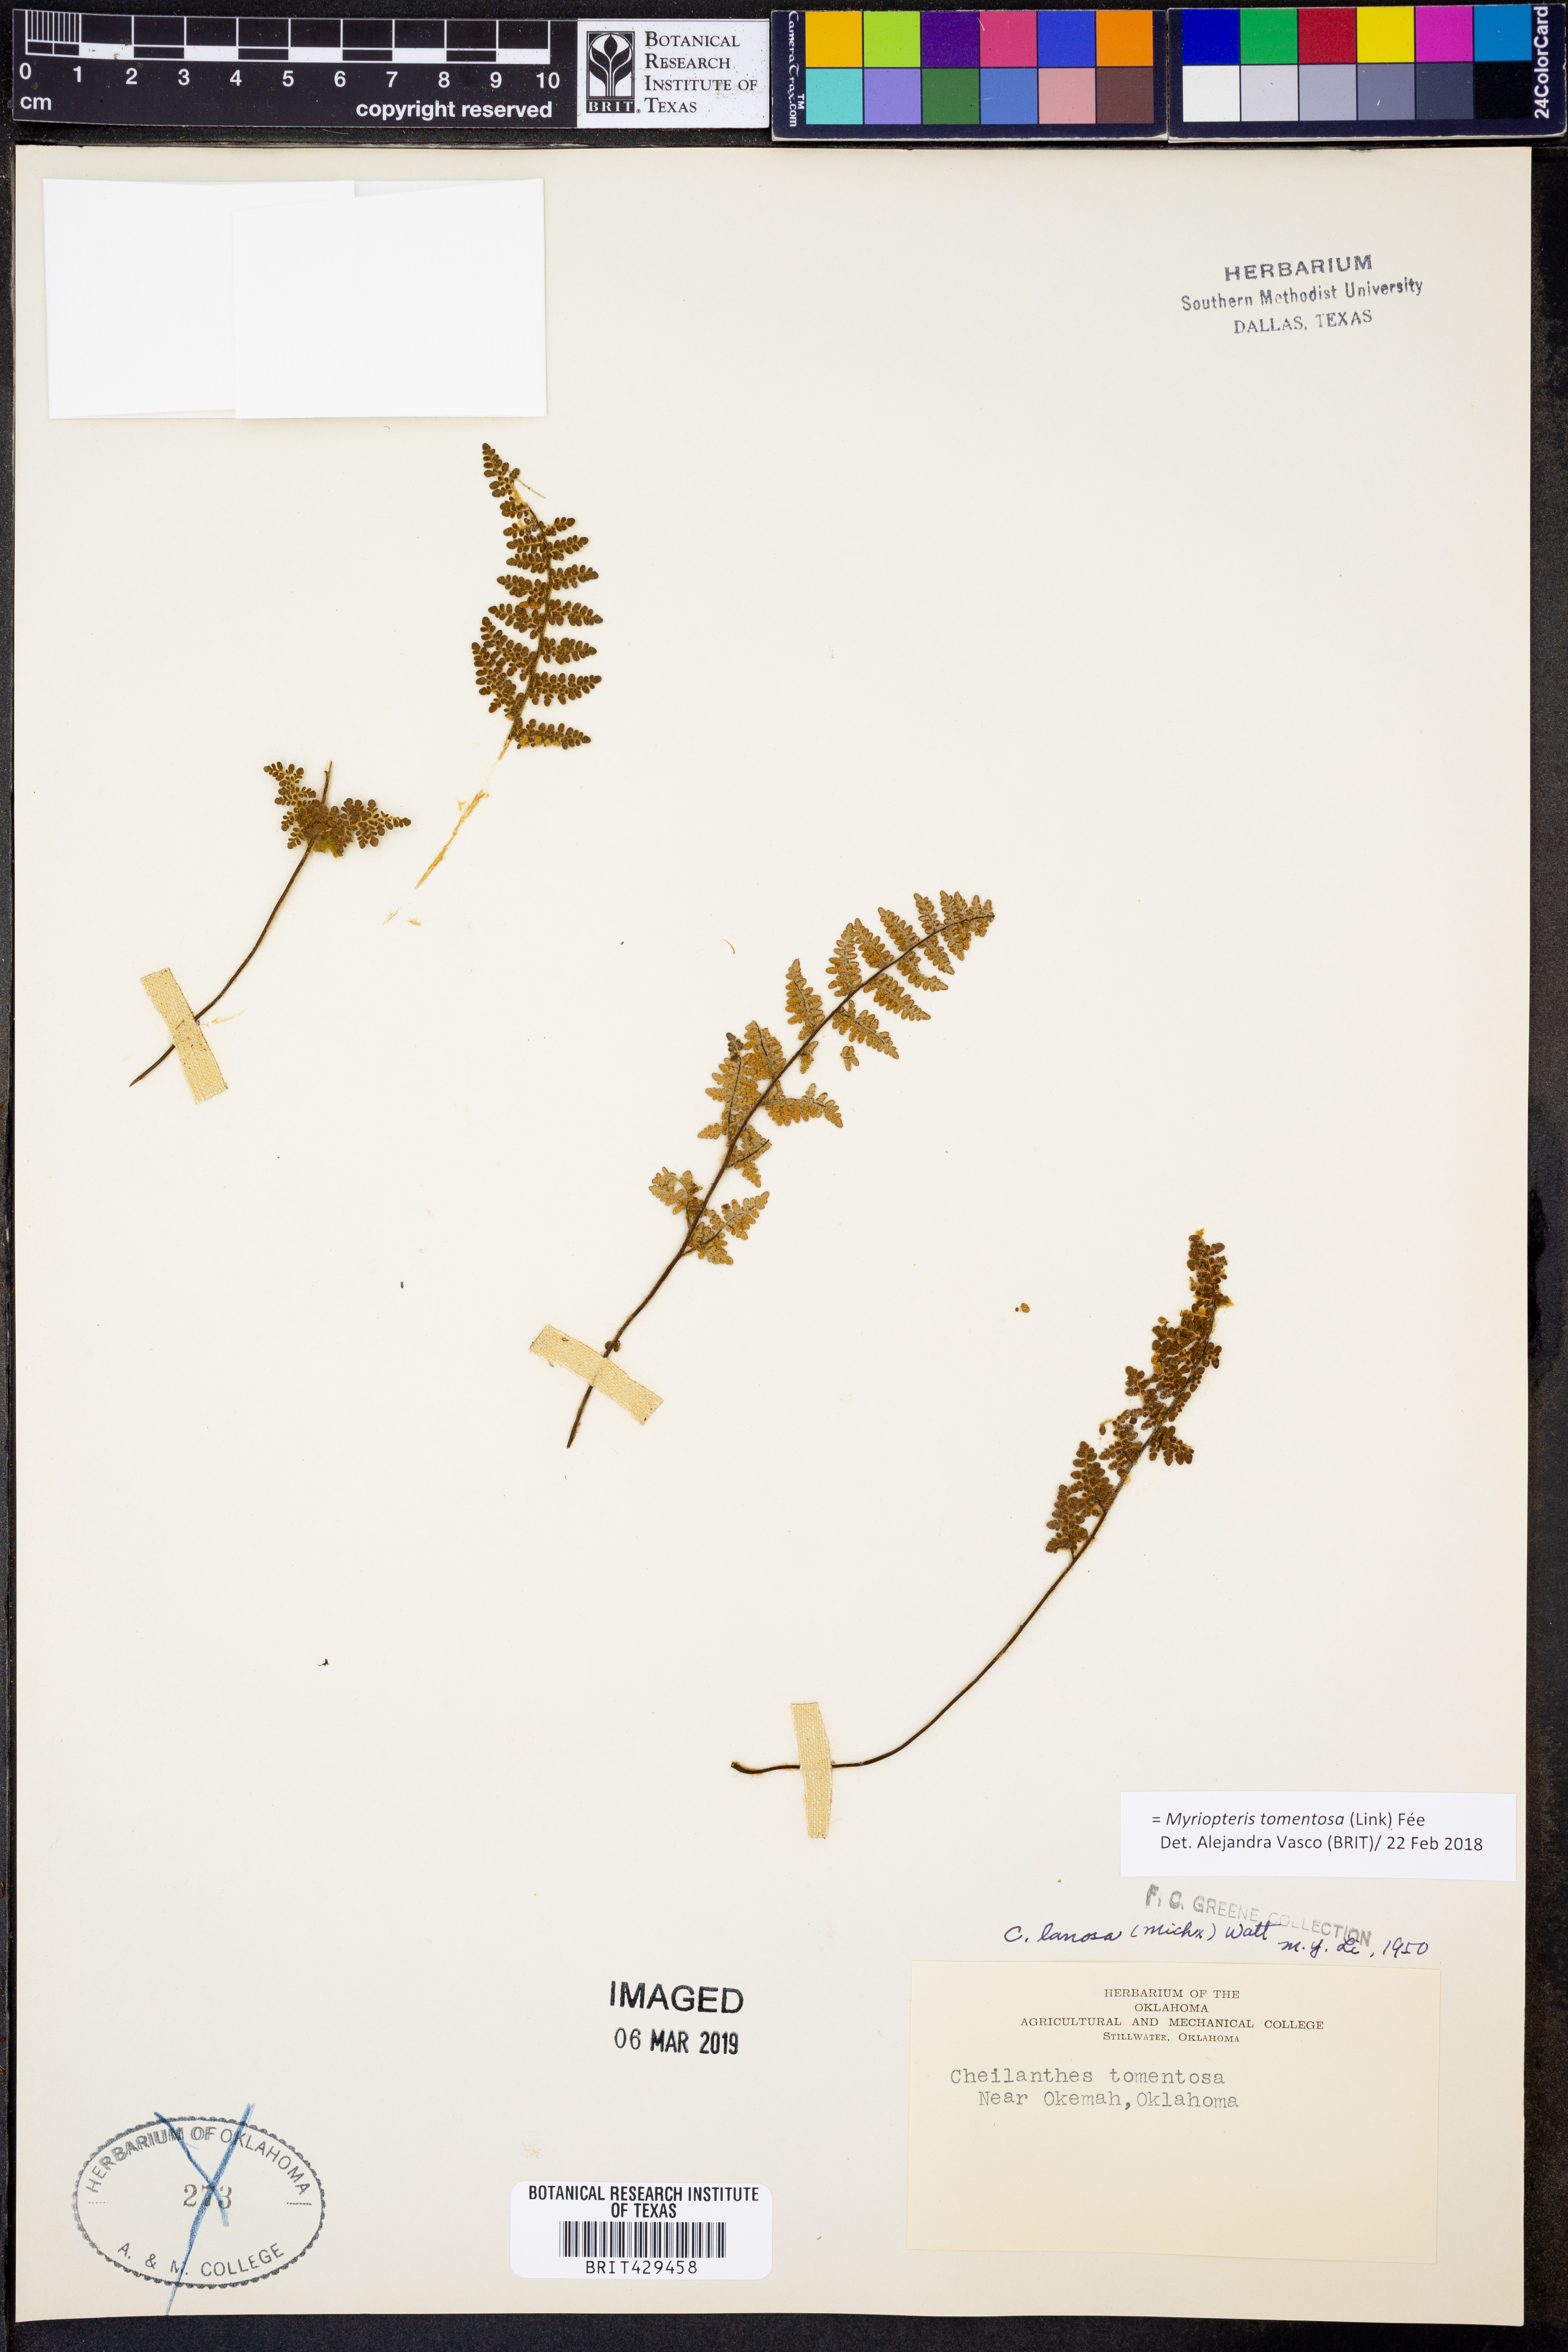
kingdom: Plantae
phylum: Tracheophyta
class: Polypodiopsida
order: Polypodiales
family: Pteridaceae
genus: Myriopteris
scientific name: Myriopteris tomentosa
